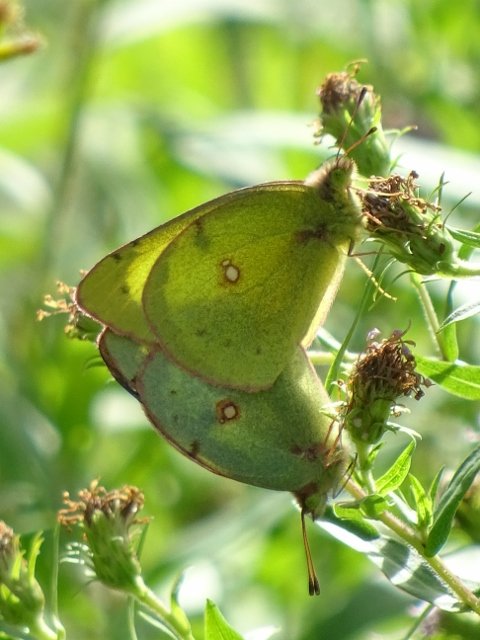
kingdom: Animalia
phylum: Arthropoda
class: Insecta
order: Lepidoptera
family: Pieridae
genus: Colias
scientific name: Colias philodice
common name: Clouded Sulphur
